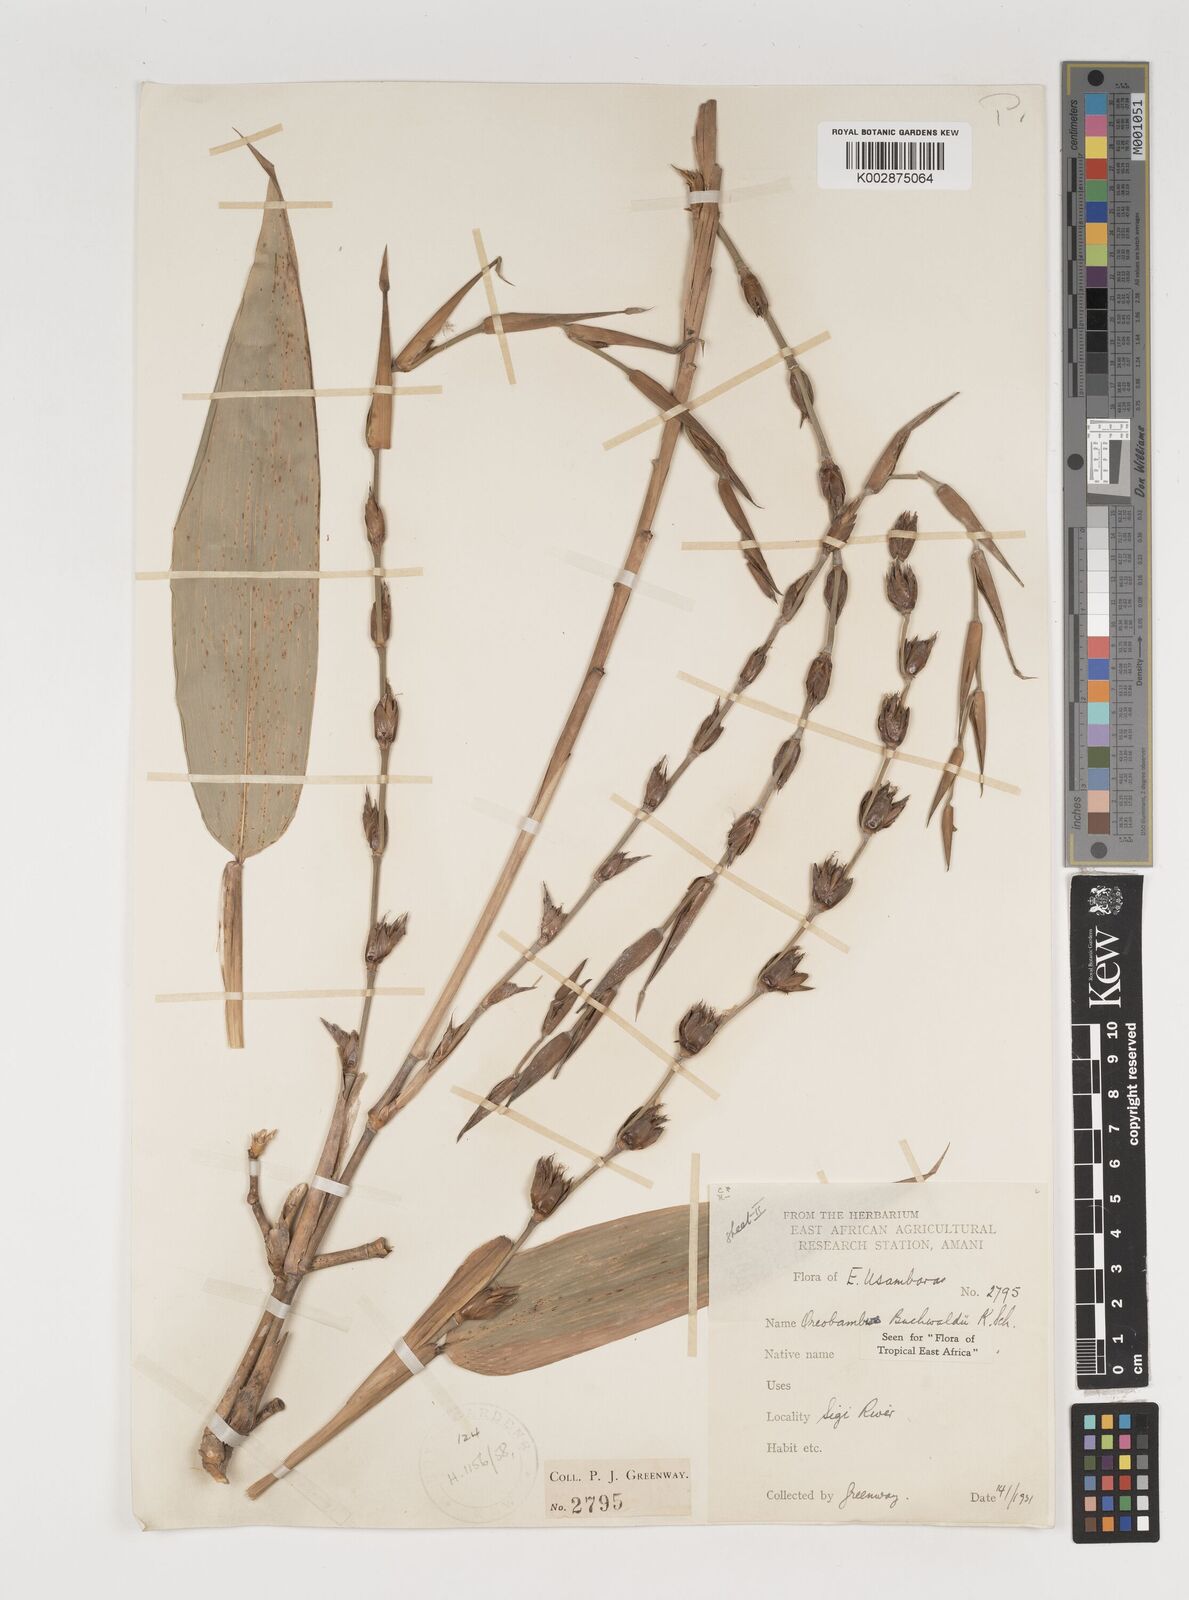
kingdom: Plantae
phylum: Tracheophyta
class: Liliopsida
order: Poales
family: Poaceae
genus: Oreobambos
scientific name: Oreobambos buchwaldii
